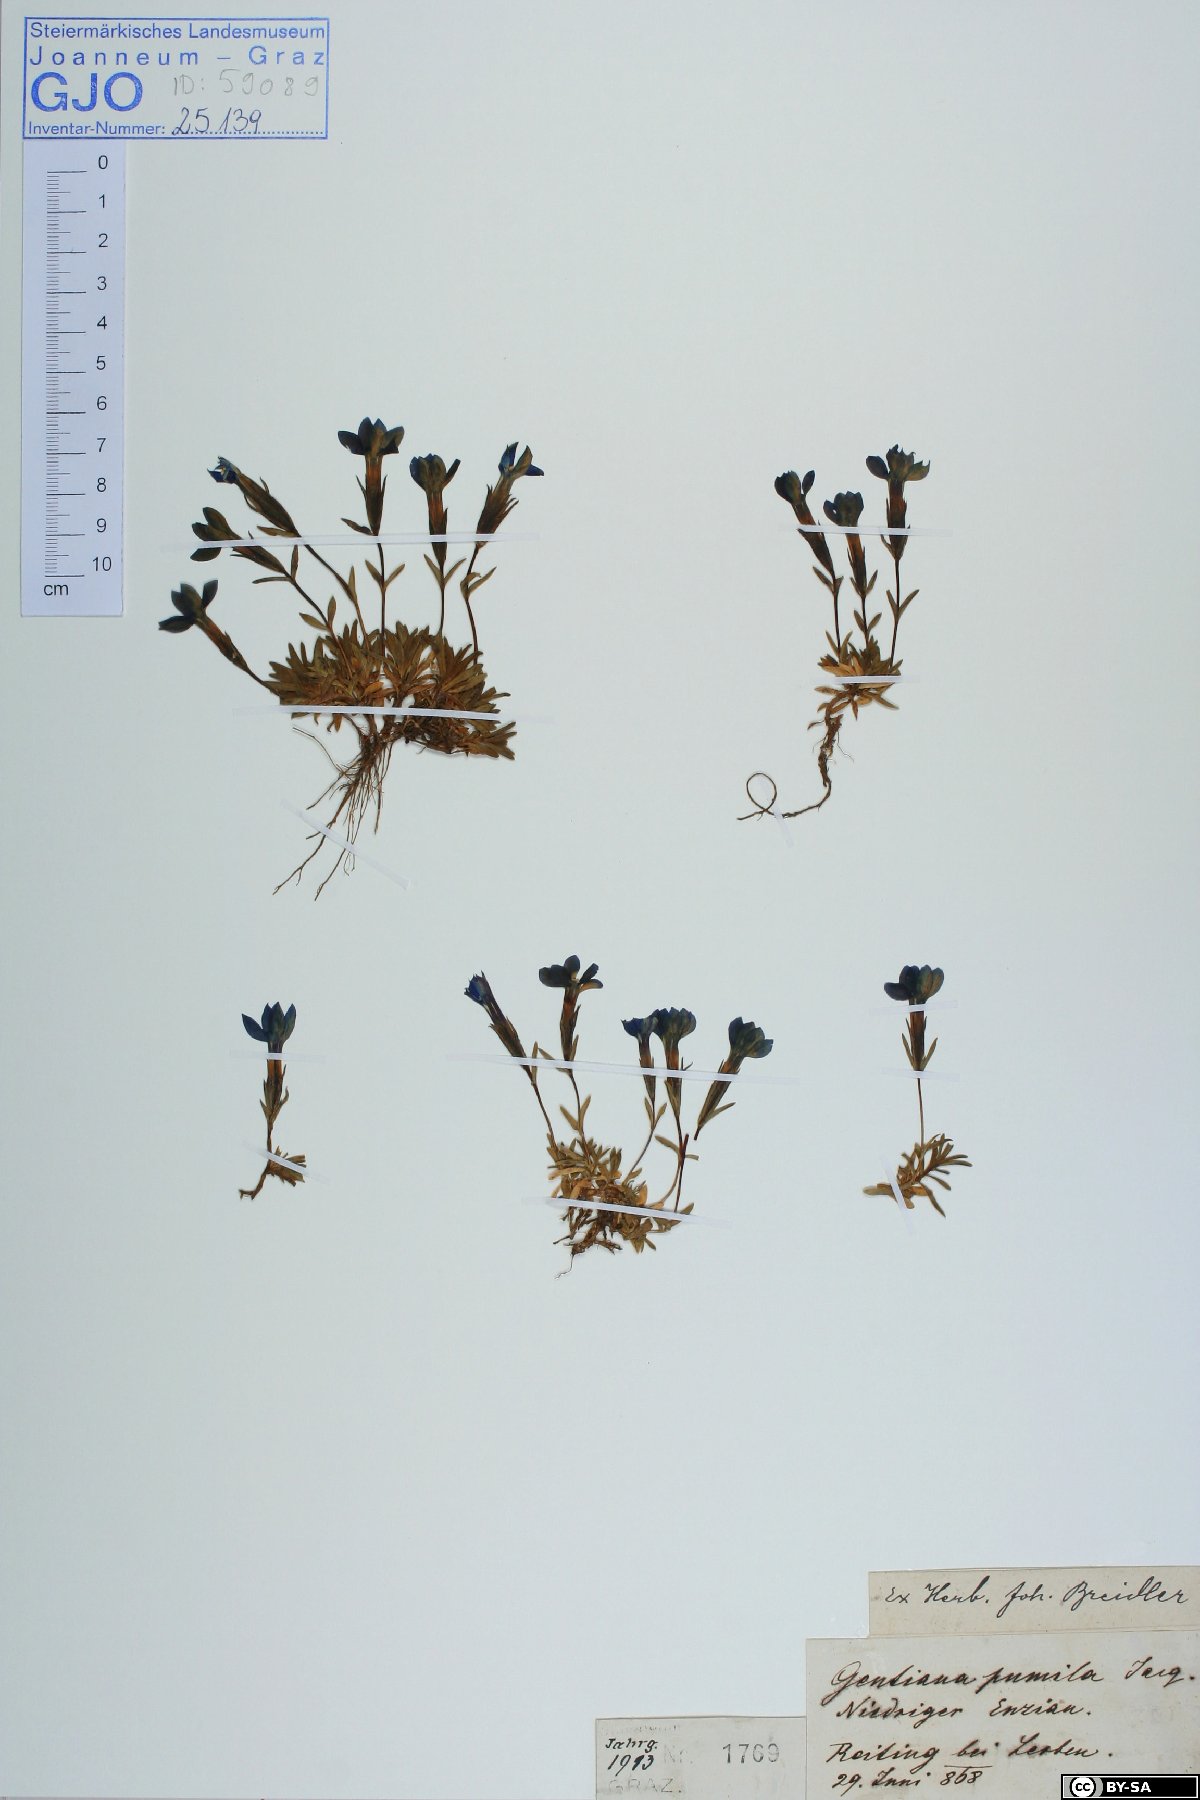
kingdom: Plantae
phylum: Tracheophyta
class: Magnoliopsida
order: Gentianales
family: Gentianaceae
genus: Gentiana
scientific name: Gentiana pumila
